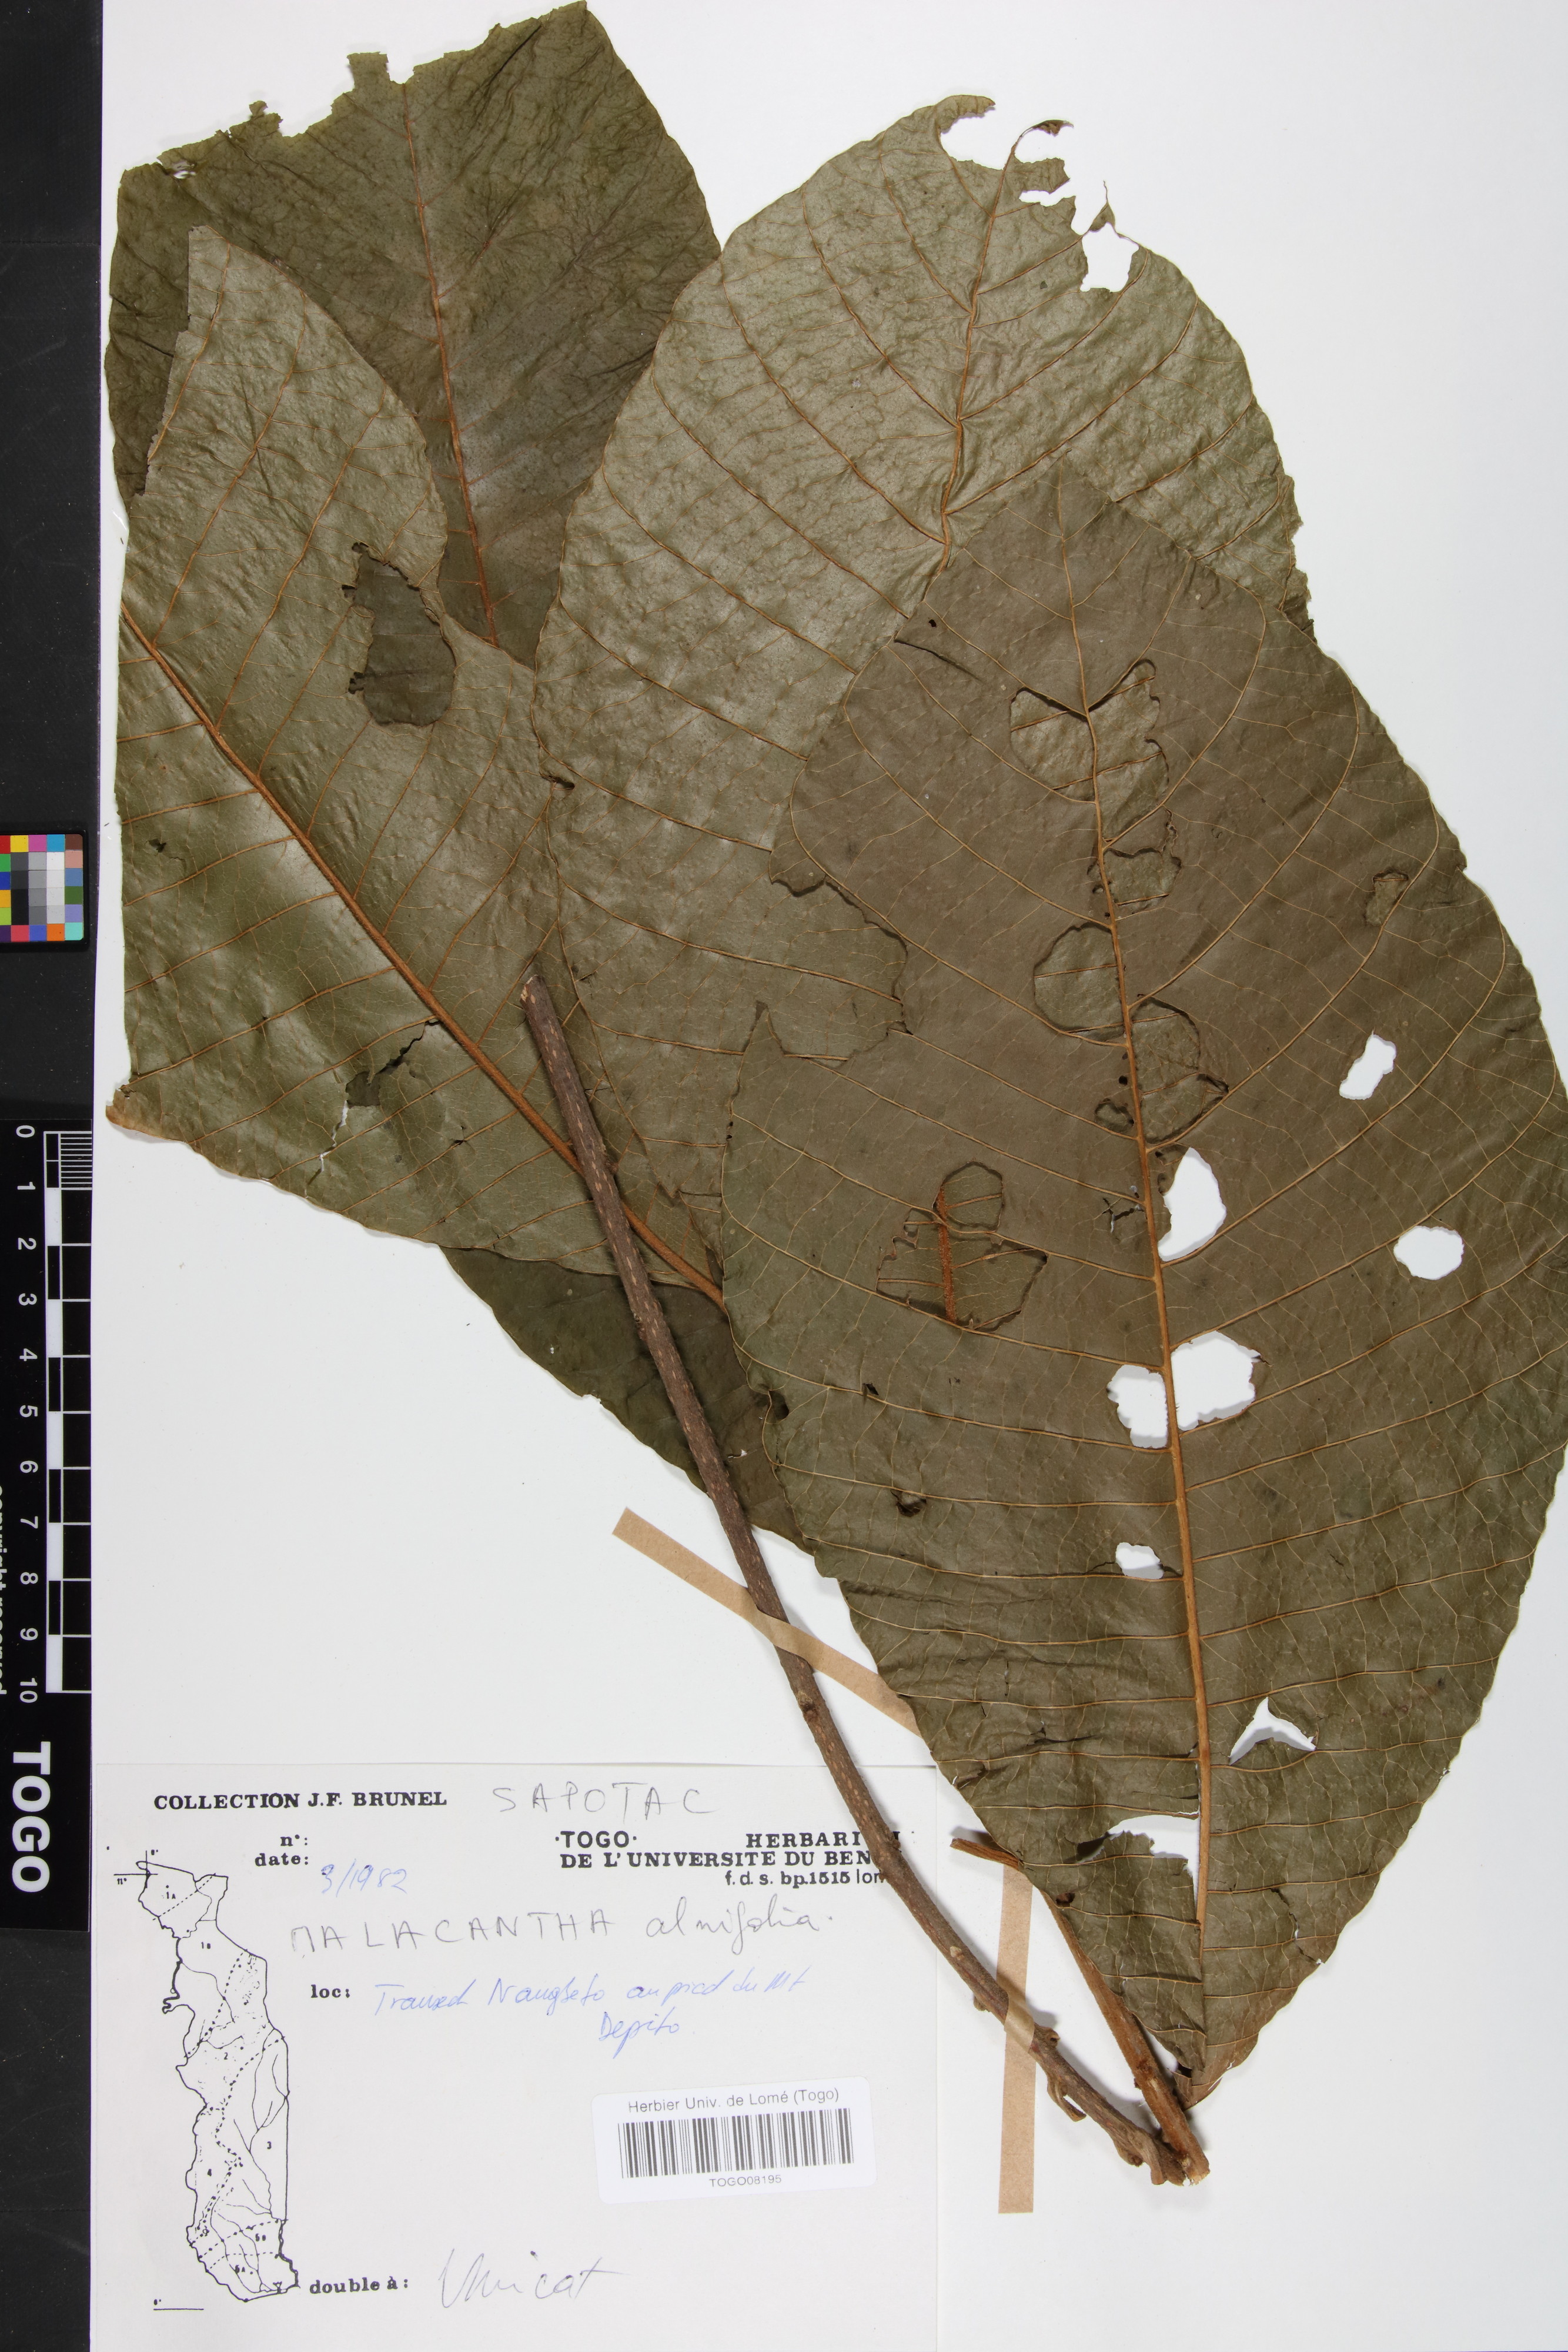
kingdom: Plantae
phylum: Tracheophyta
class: Magnoliopsida
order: Ericales
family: Sapotaceae
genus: Malacantha
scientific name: Malacantha alnifolia
